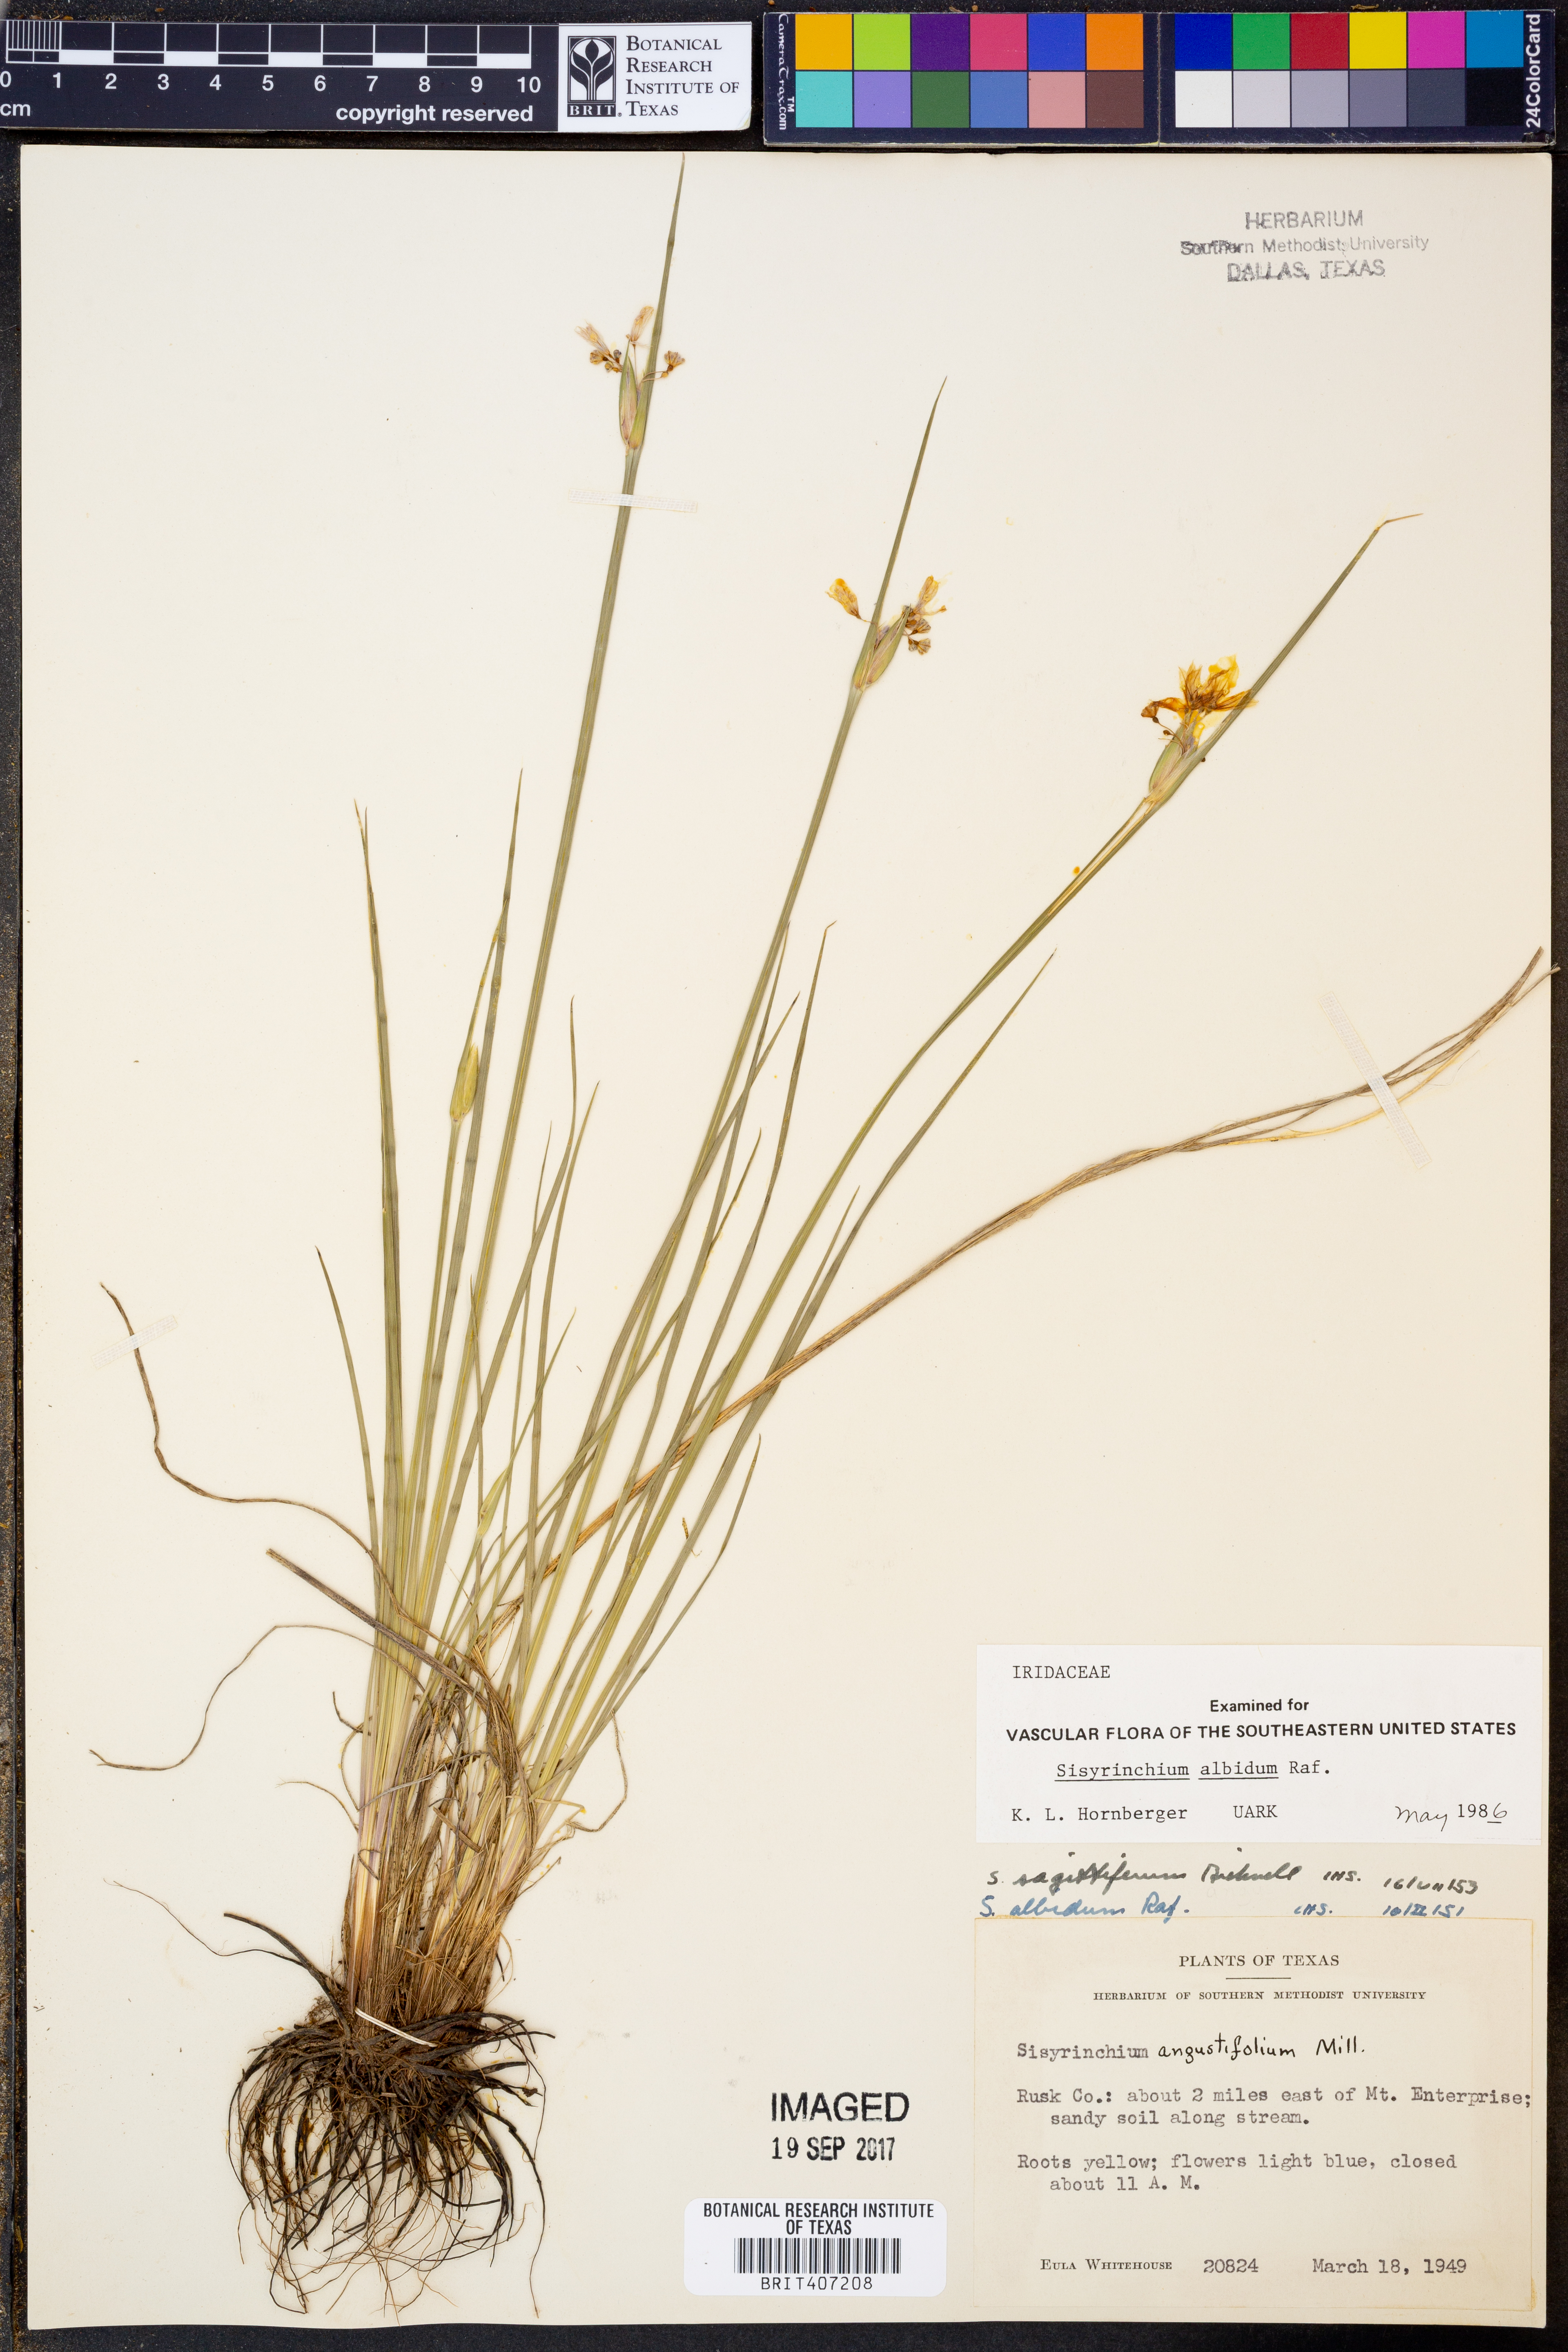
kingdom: Plantae
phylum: Tracheophyta
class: Liliopsida
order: Asparagales
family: Iridaceae
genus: Sisyrinchium
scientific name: Sisyrinchium albidum
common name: Pale blue-eyed-grass
